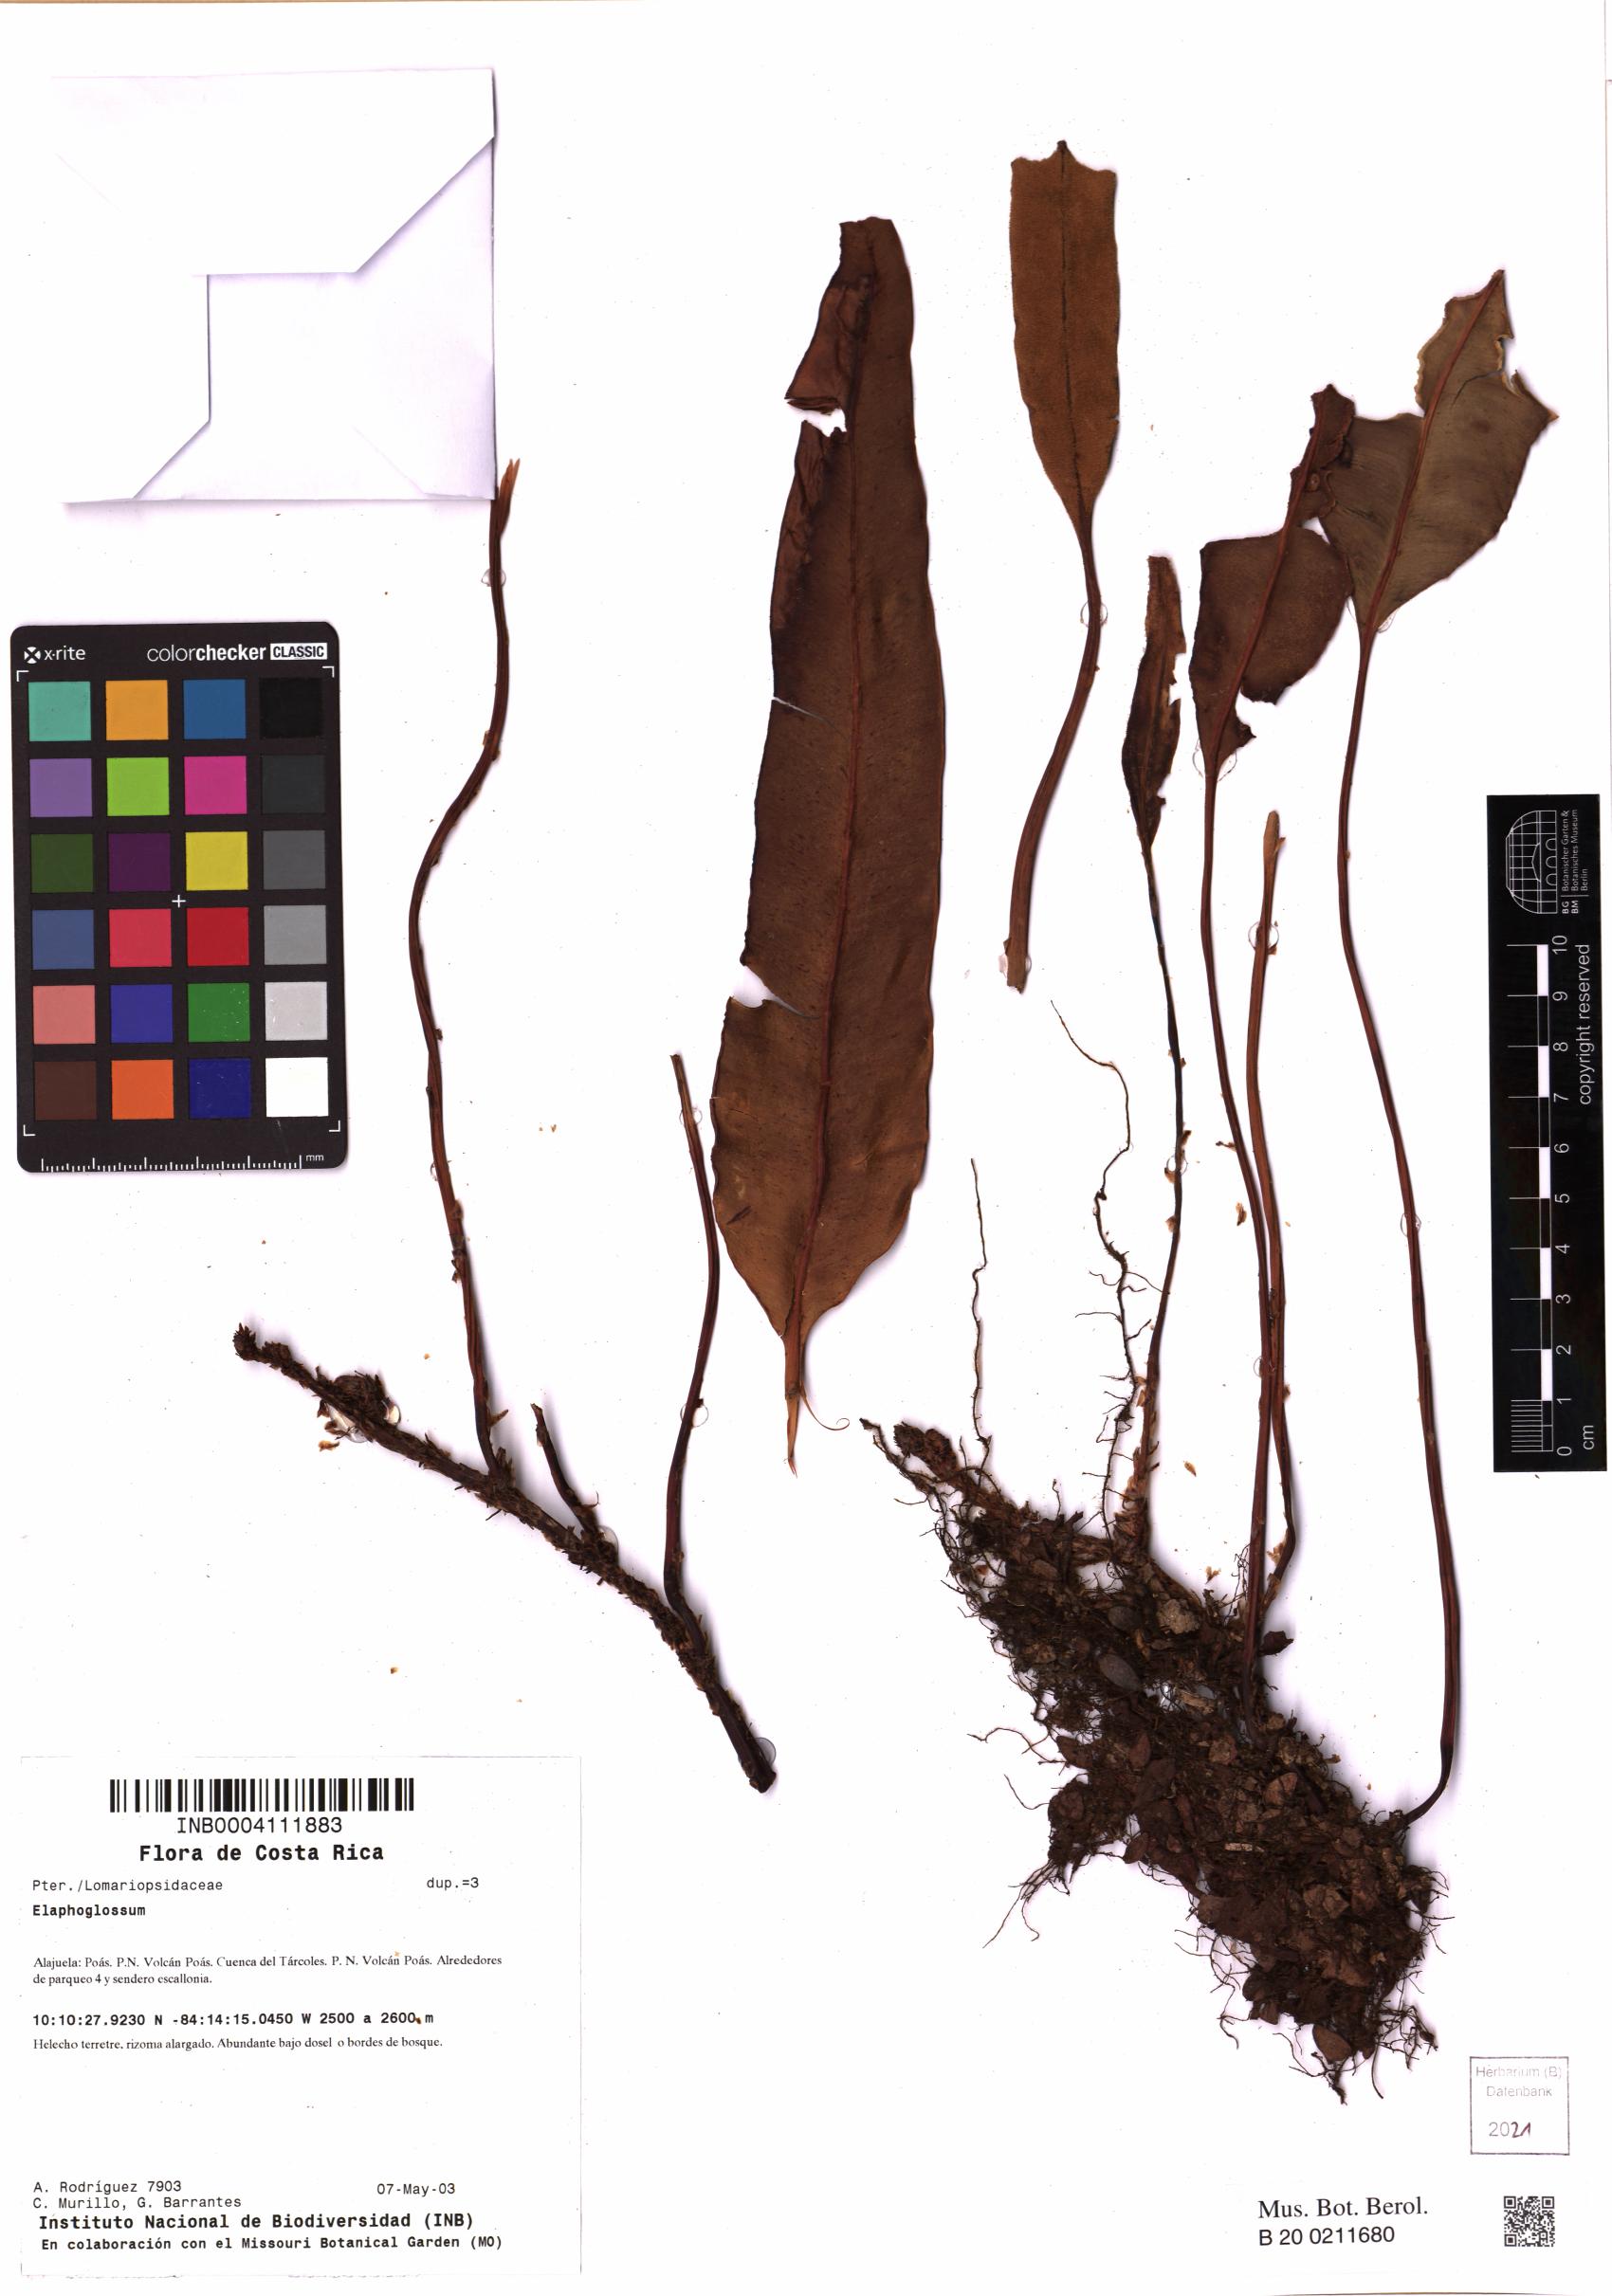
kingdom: Plantae
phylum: Tracheophyta
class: Polypodiopsida
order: Polypodiales
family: Dryopteridaceae
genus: Elaphoglossum
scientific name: Elaphoglossum
